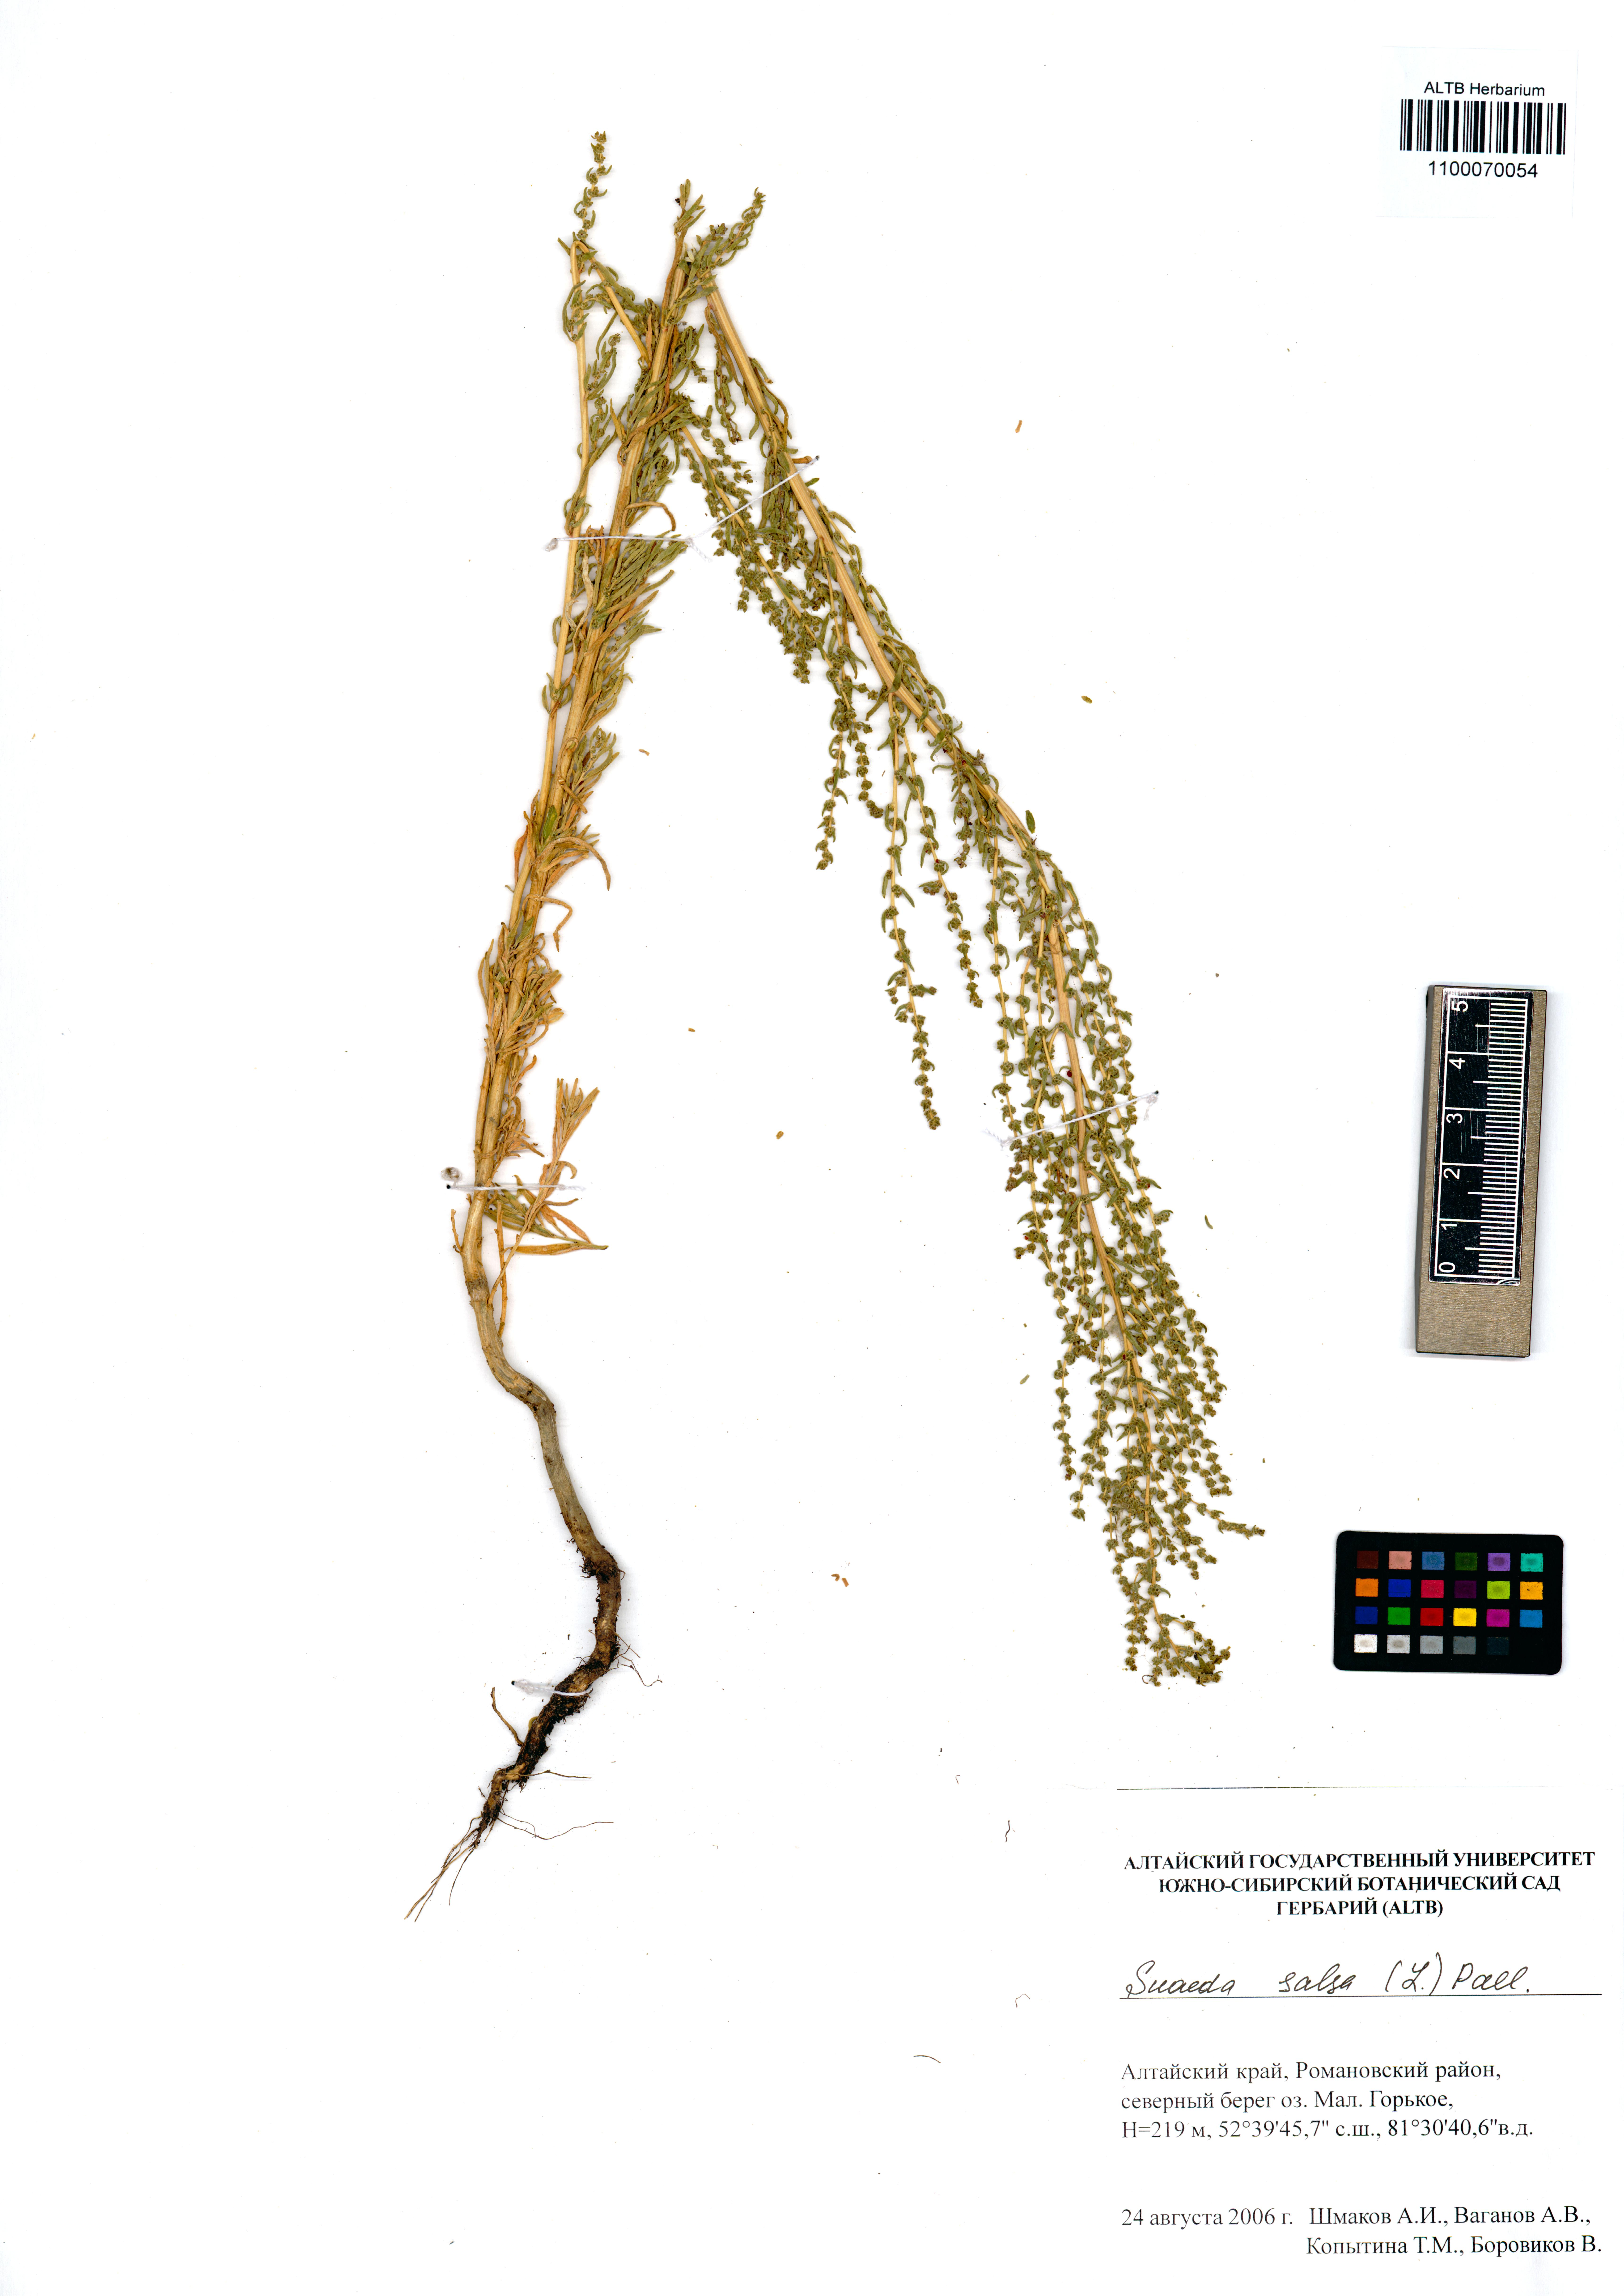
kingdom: Plantae
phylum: Tracheophyta
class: Magnoliopsida
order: Caryophyllales
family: Amaranthaceae
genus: Suaeda
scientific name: Suaeda salsa
